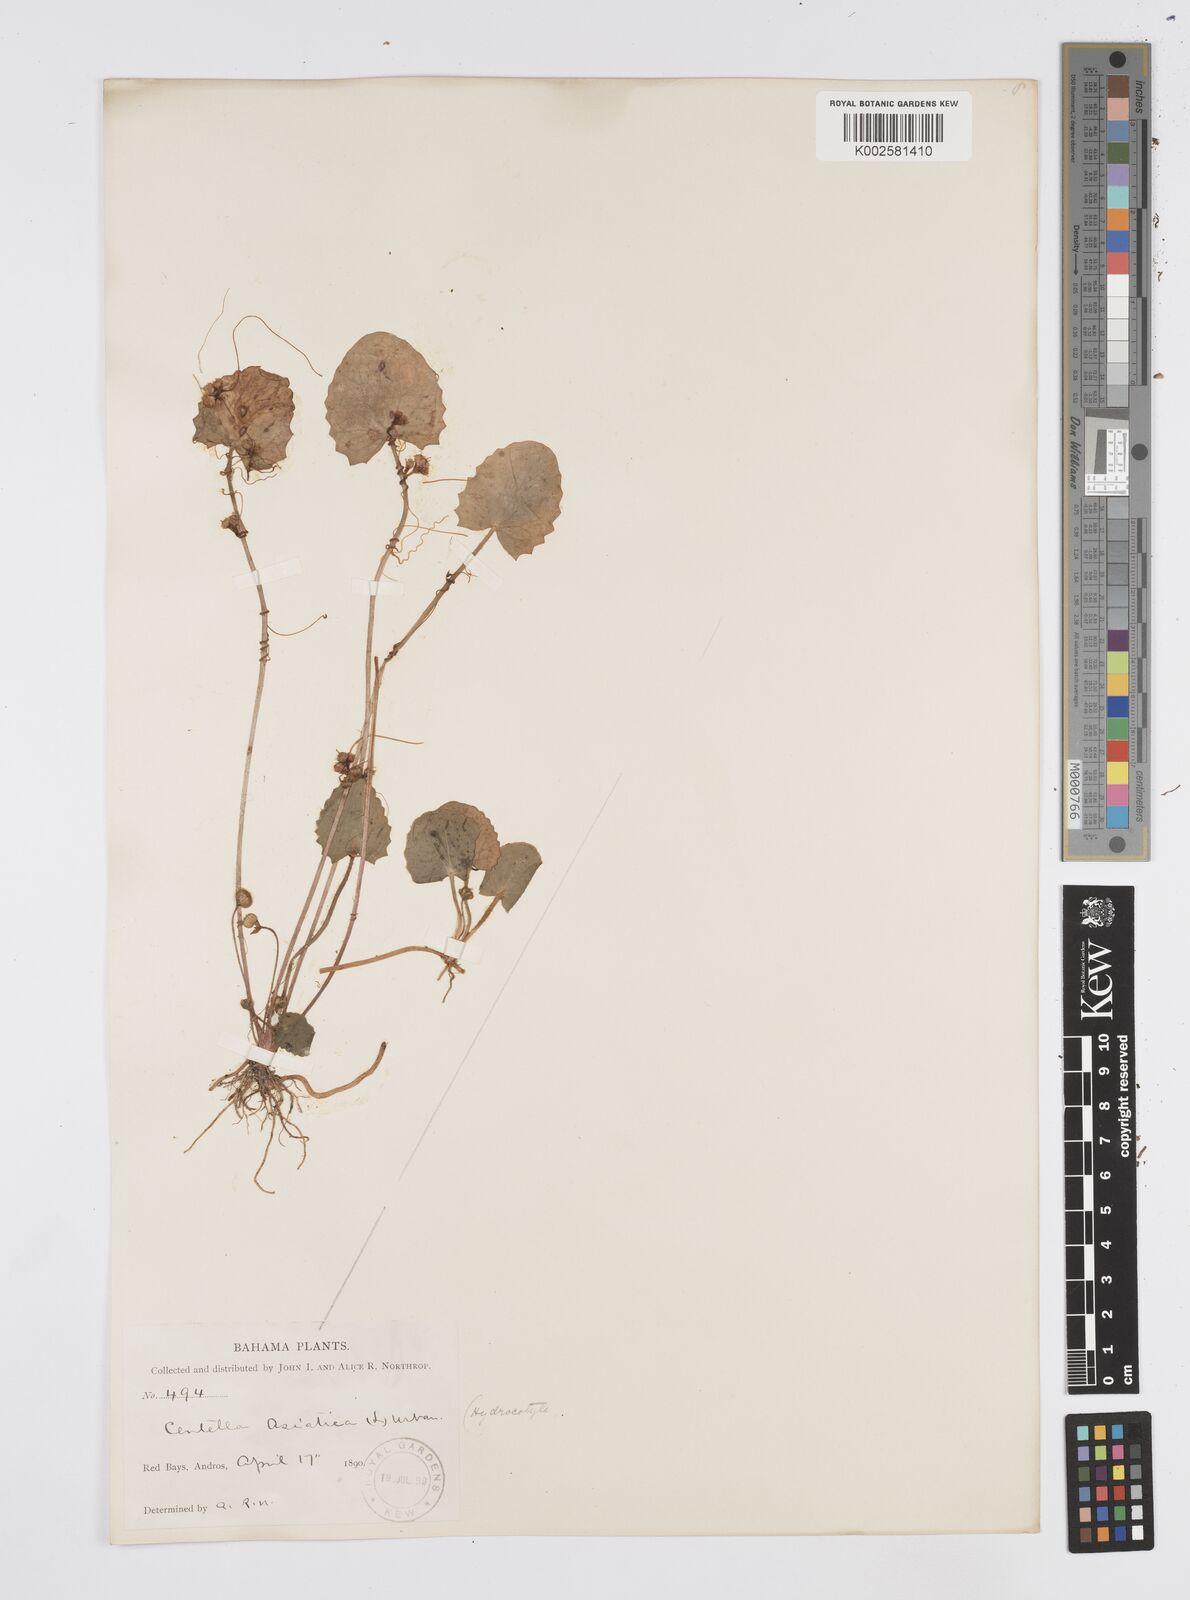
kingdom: Plantae
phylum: Tracheophyta
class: Magnoliopsida
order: Apiales
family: Apiaceae
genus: Centella
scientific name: Centella asiatica
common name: Spadeleaf
